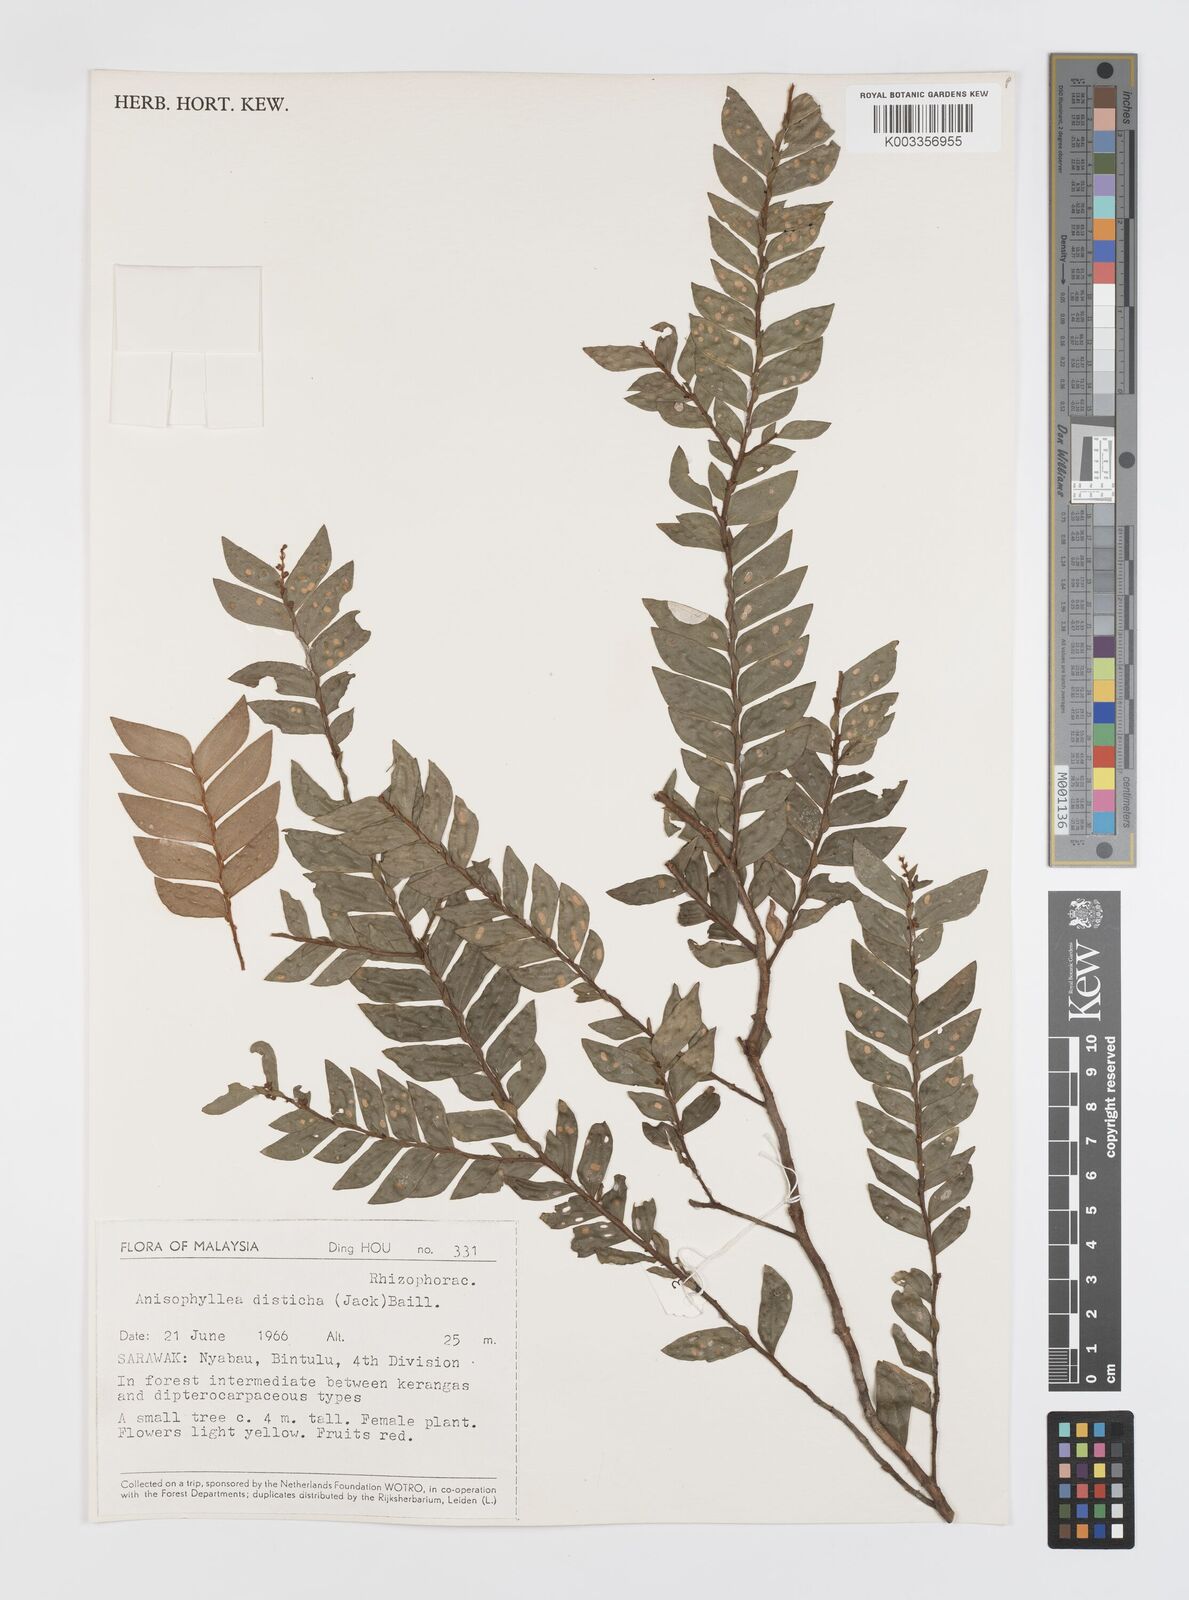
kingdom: Plantae
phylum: Tracheophyta
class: Magnoliopsida
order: Cucurbitales
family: Anisophylleaceae
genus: Anisophyllea
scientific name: Anisophyllea disticha
